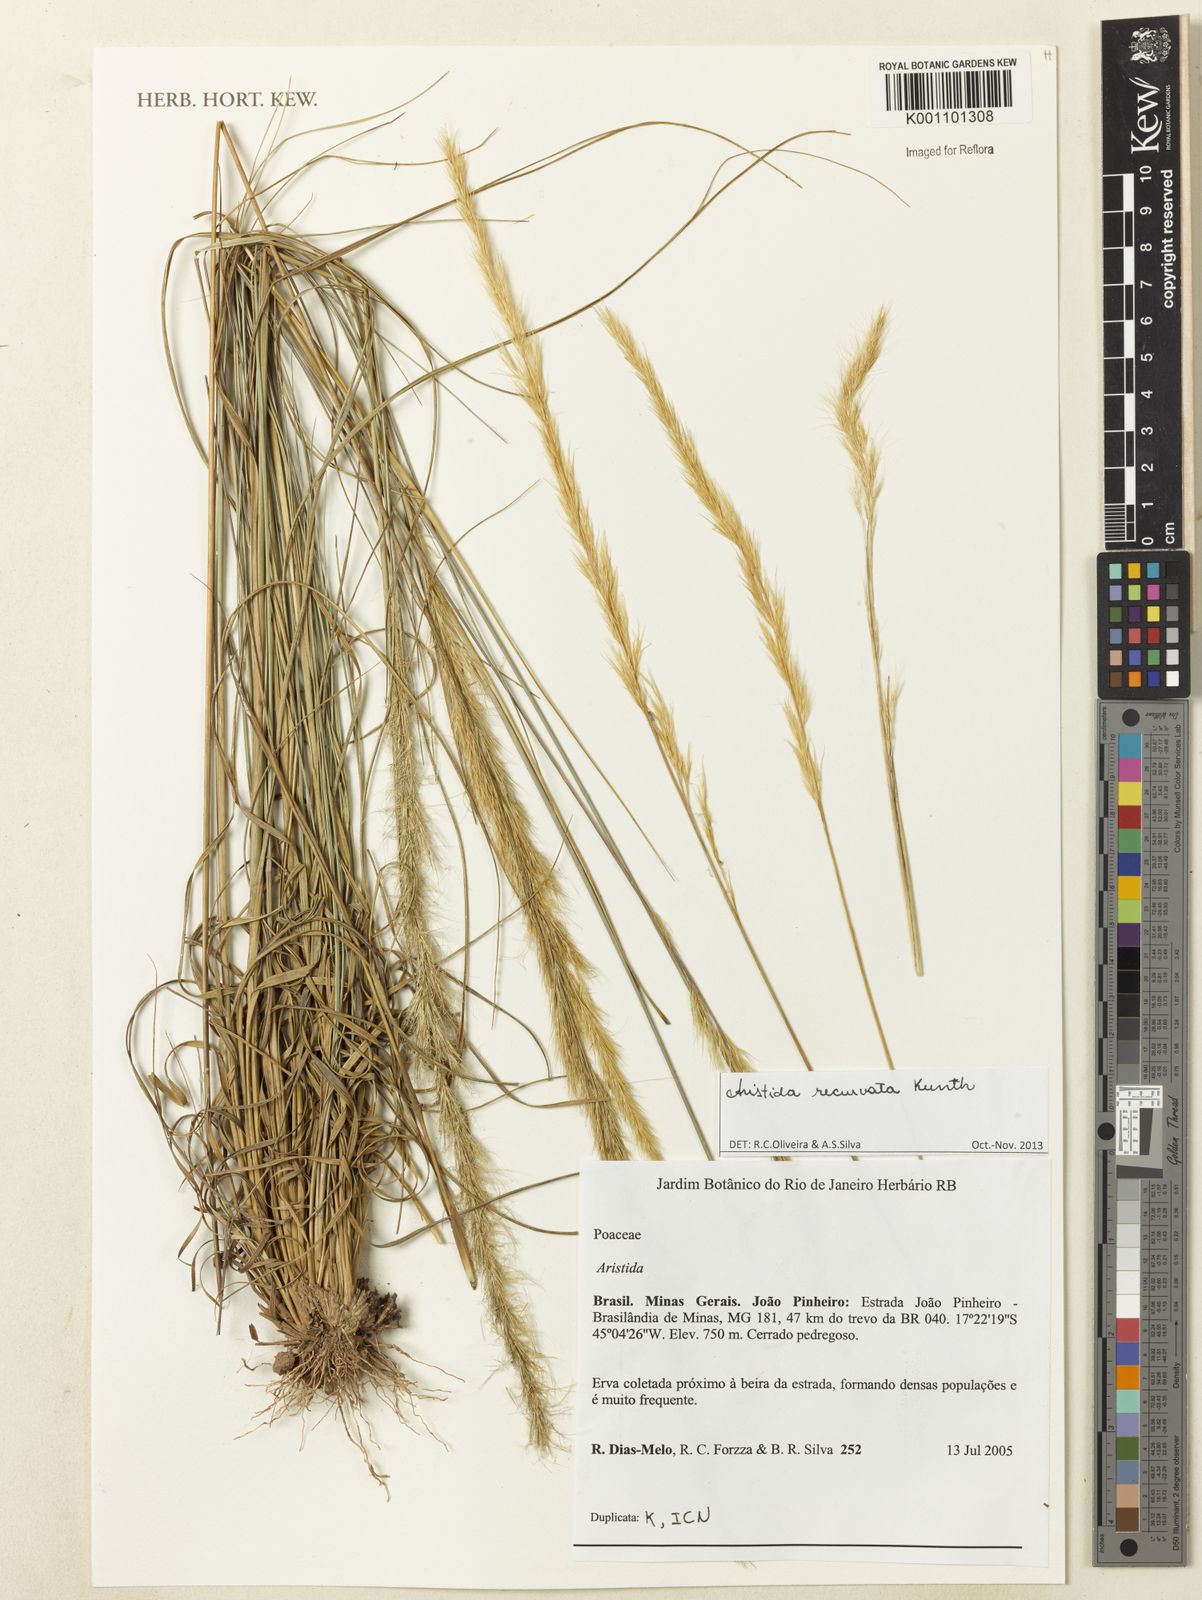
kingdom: Plantae
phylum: Tracheophyta
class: Liliopsida
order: Poales
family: Poaceae
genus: Aristida
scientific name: Aristida recurvata
